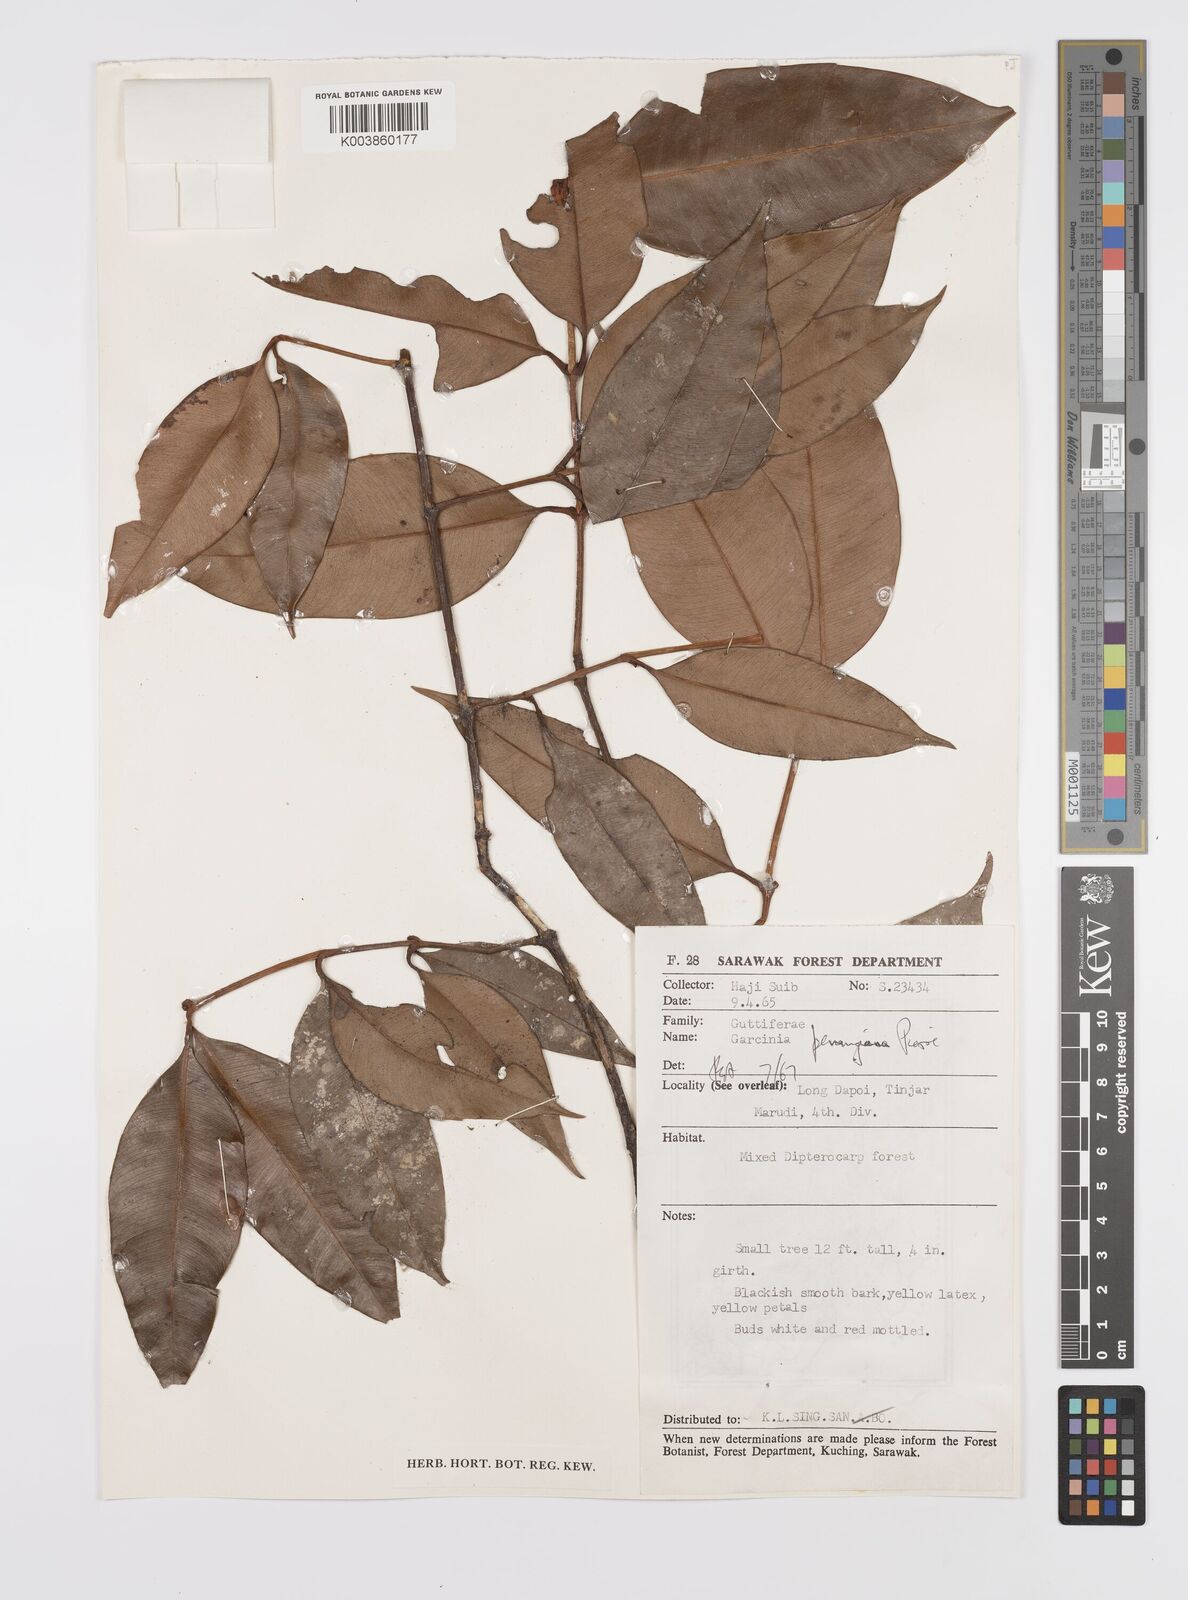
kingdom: Plantae
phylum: Tracheophyta
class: Magnoliopsida
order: Malpighiales
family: Clusiaceae
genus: Garcinia
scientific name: Garcinia penangiana
